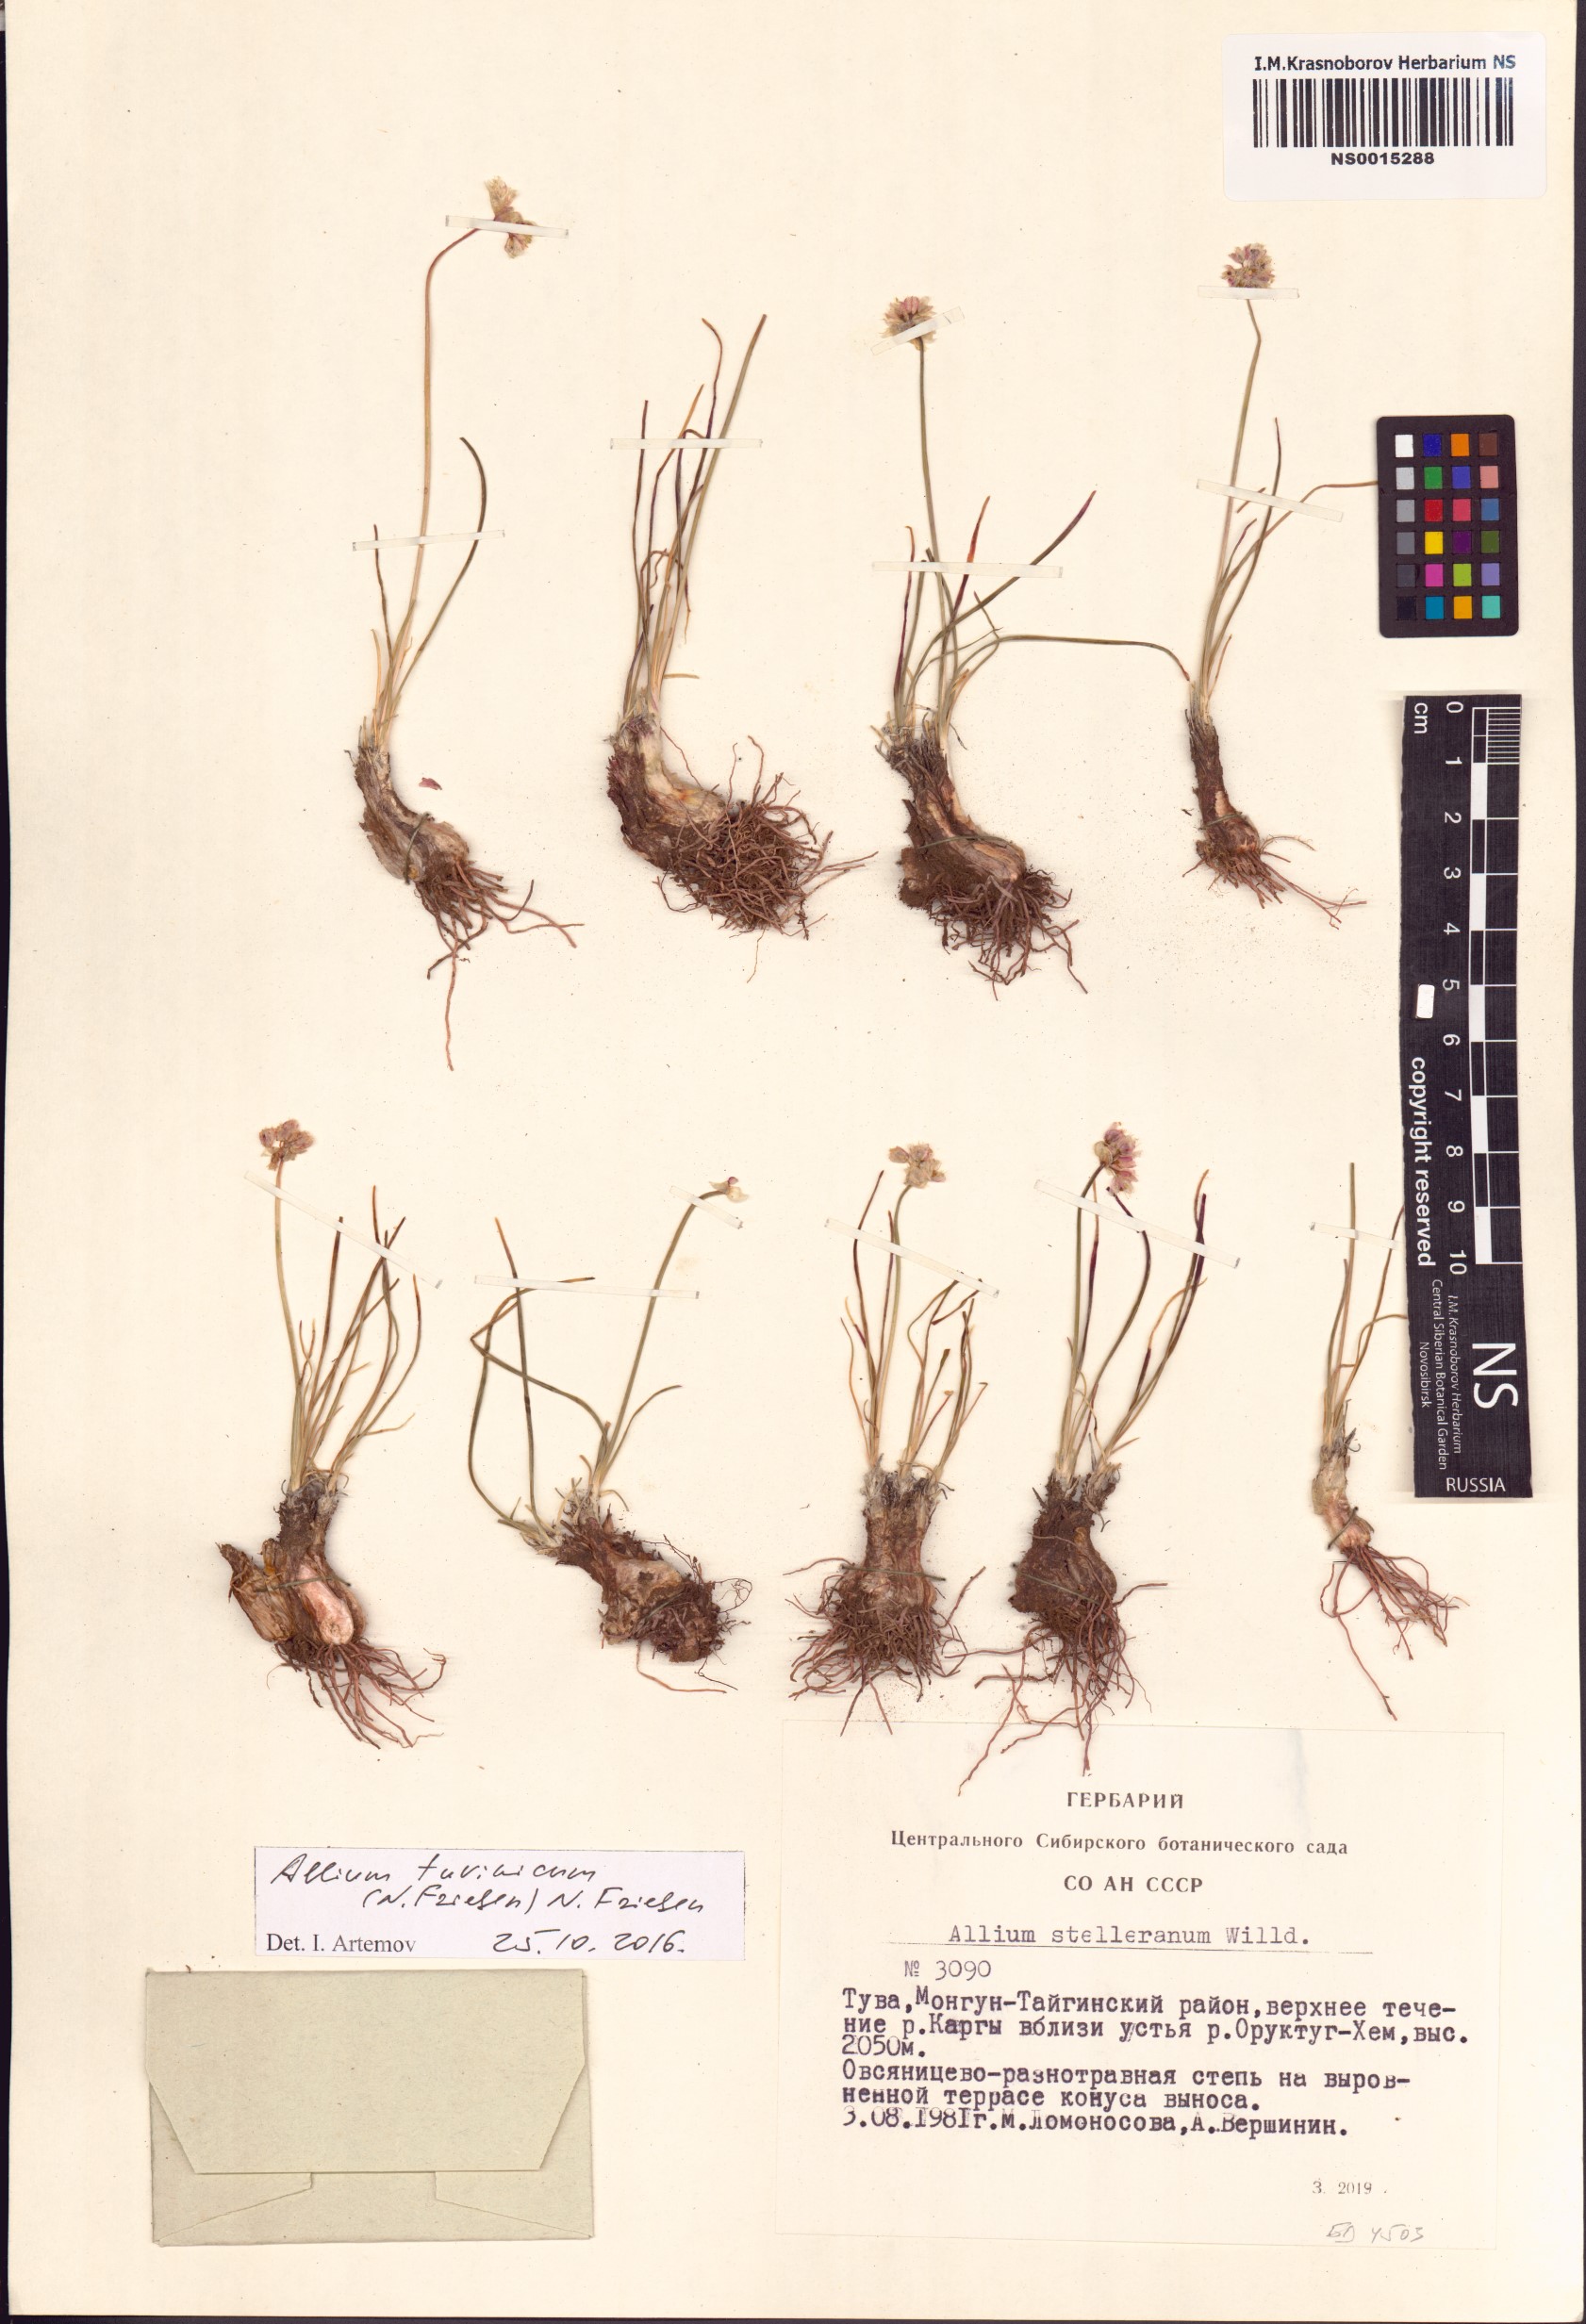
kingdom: Plantae
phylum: Tracheophyta
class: Liliopsida
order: Asparagales
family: Amaryllidaceae
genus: Allium
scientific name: Allium tuvinicum
